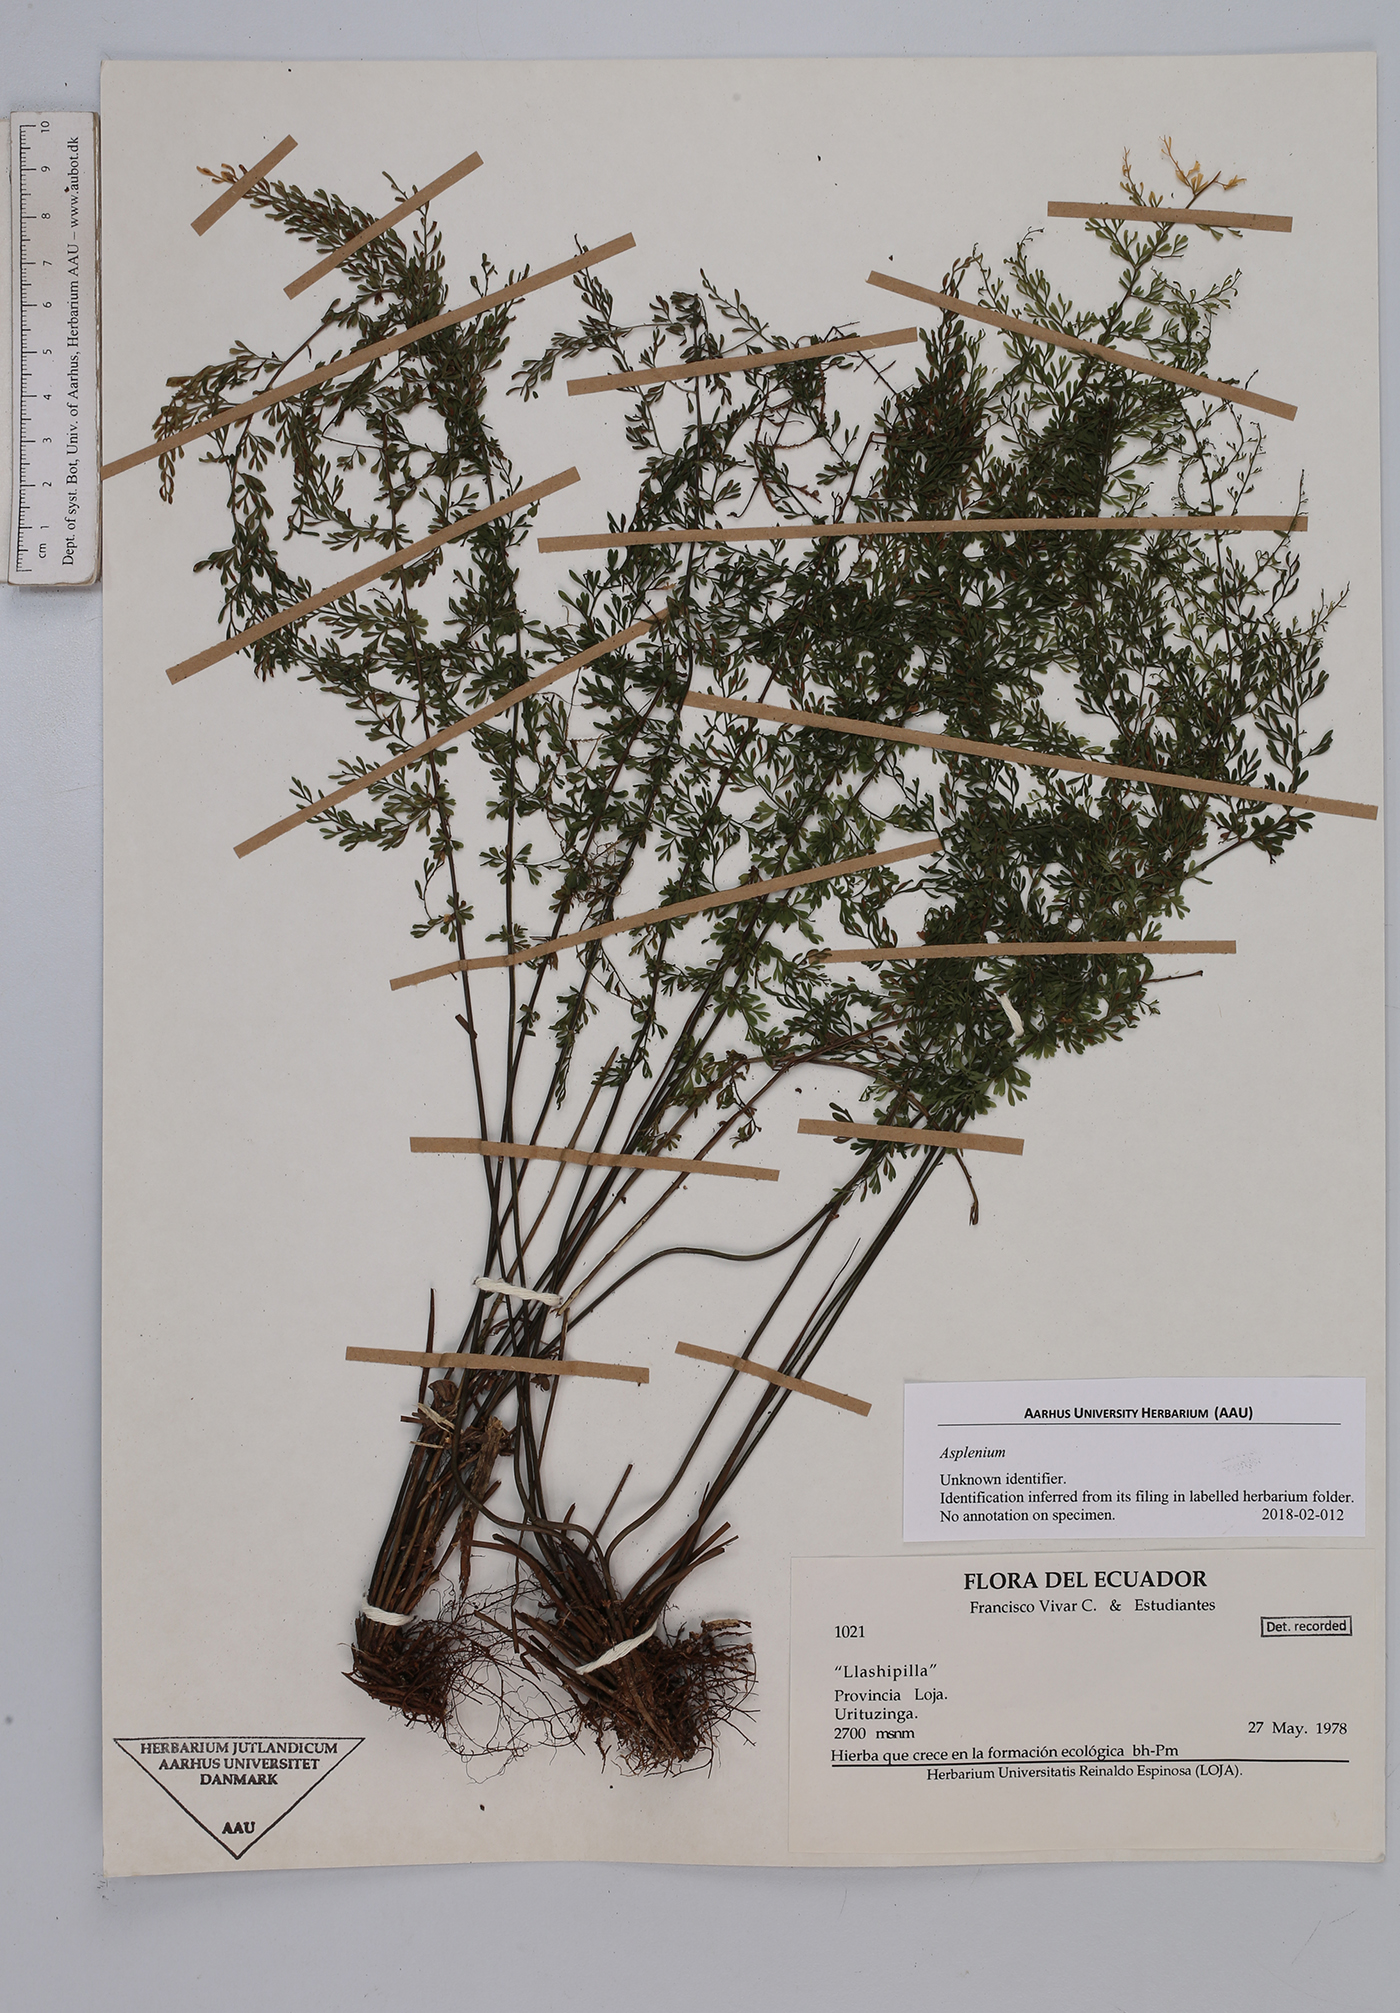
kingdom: Plantae
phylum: Tracheophyta
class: Polypodiopsida
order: Polypodiales
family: Aspleniaceae
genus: Asplenium
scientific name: Asplenium
